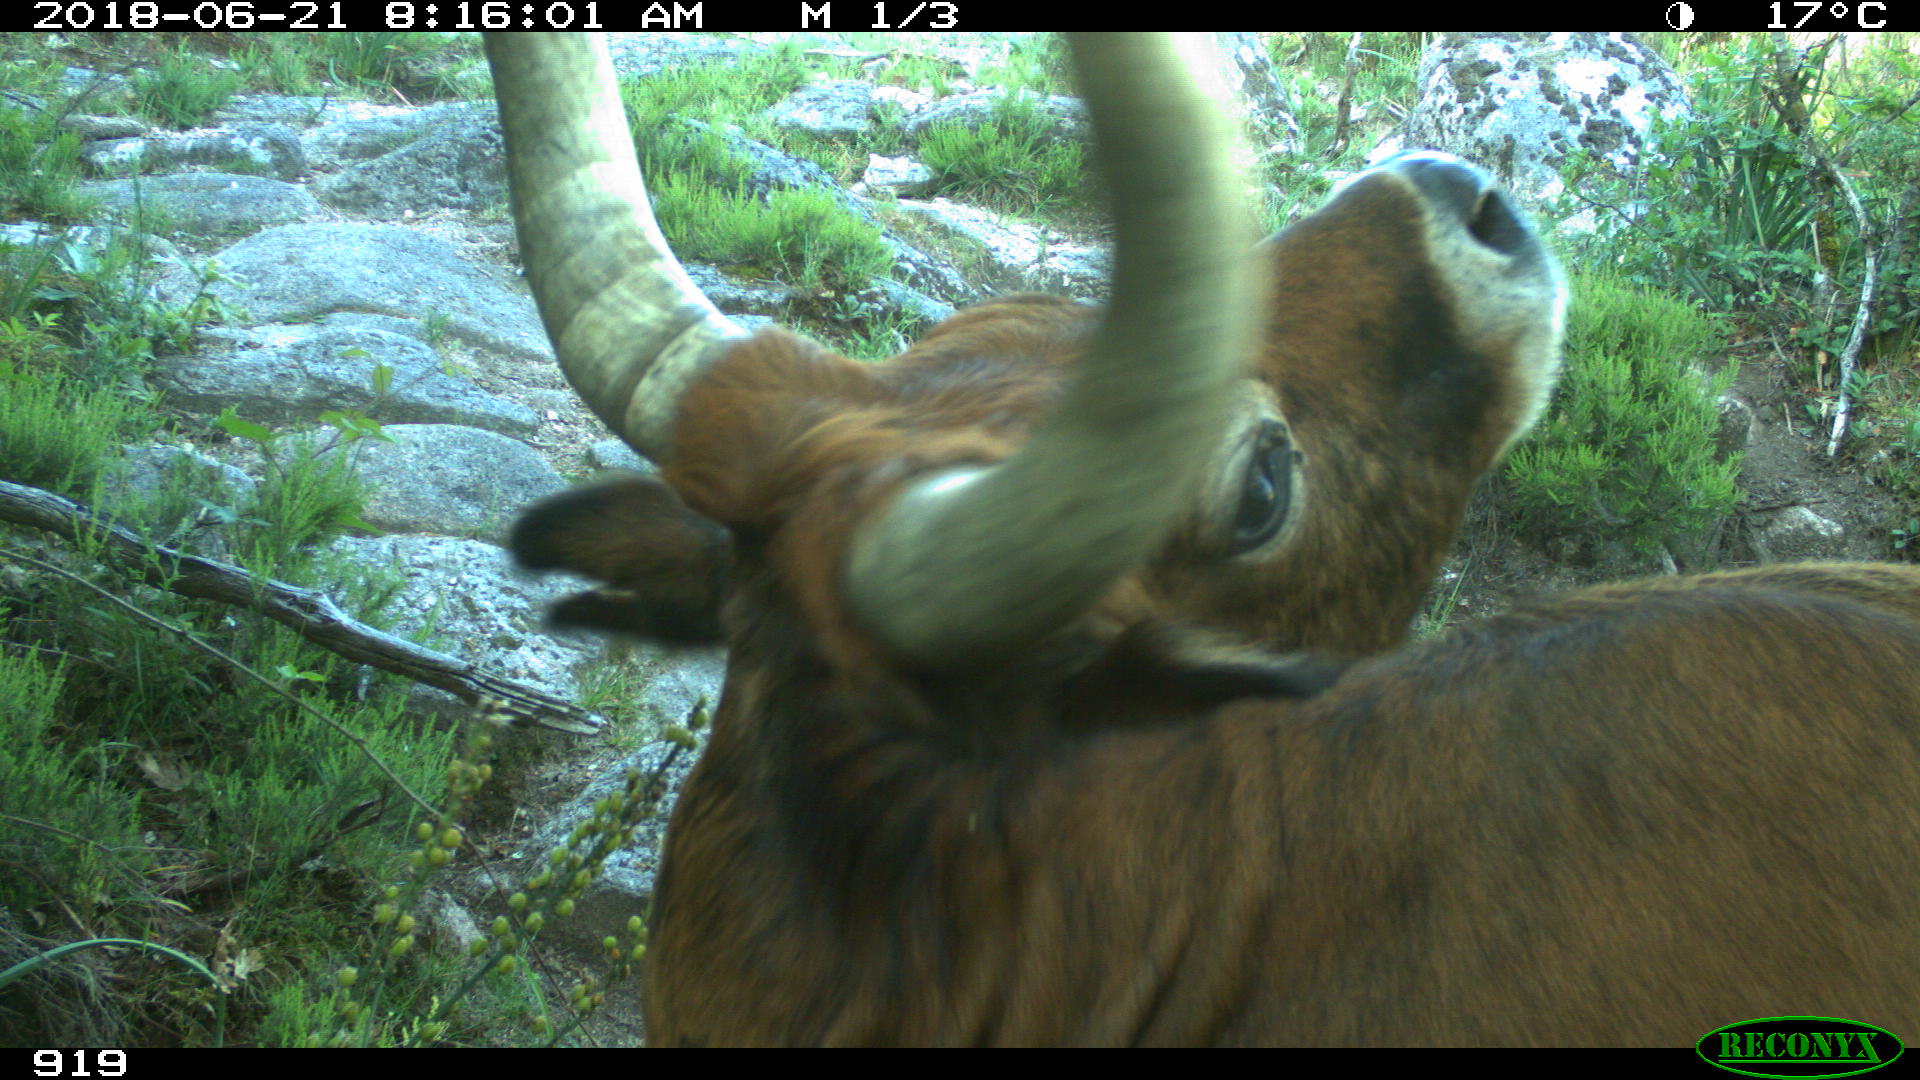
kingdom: Animalia
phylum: Chordata
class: Mammalia
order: Artiodactyla
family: Bovidae
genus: Bos
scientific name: Bos taurus
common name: Domesticated cattle
